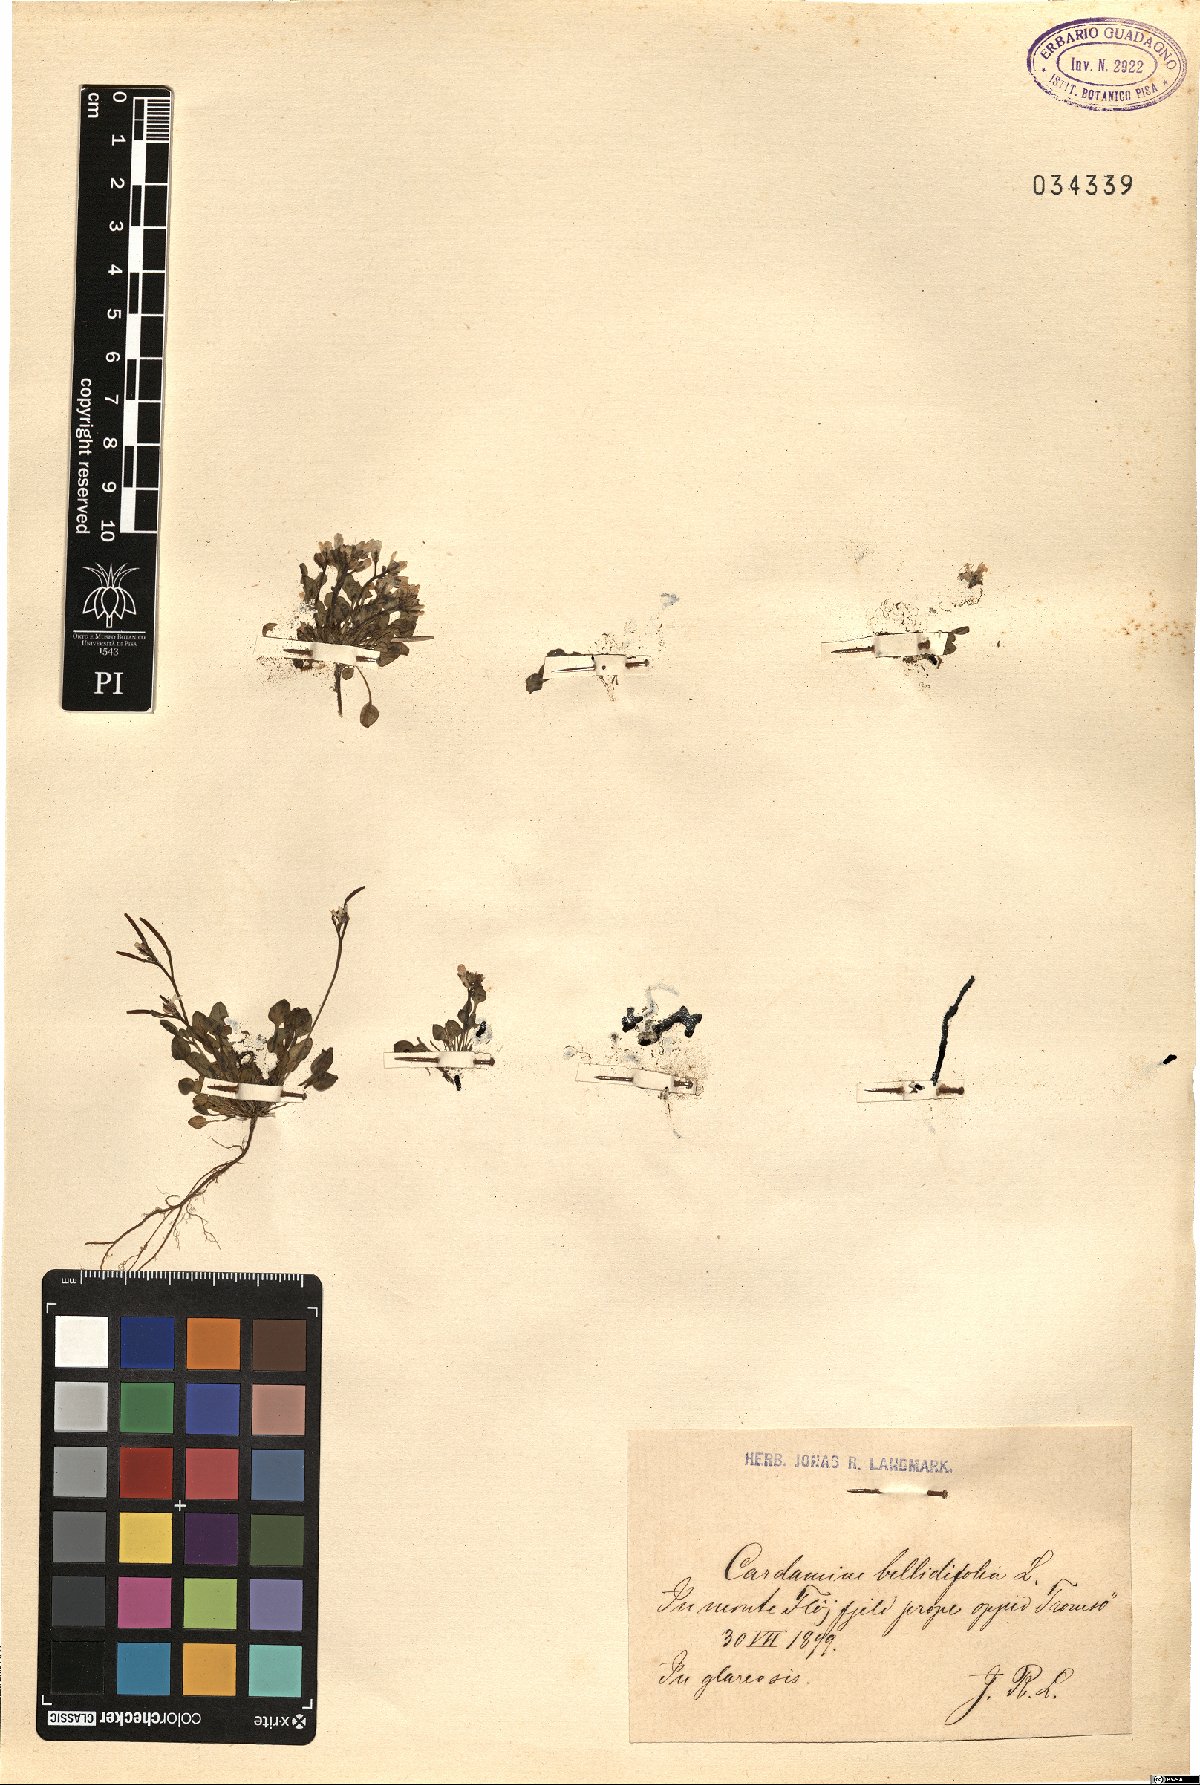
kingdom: Plantae
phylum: Tracheophyta
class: Magnoliopsida
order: Brassicales
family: Brassicaceae
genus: Cardamine
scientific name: Cardamine bellidifolia
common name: Alpine bittercress
